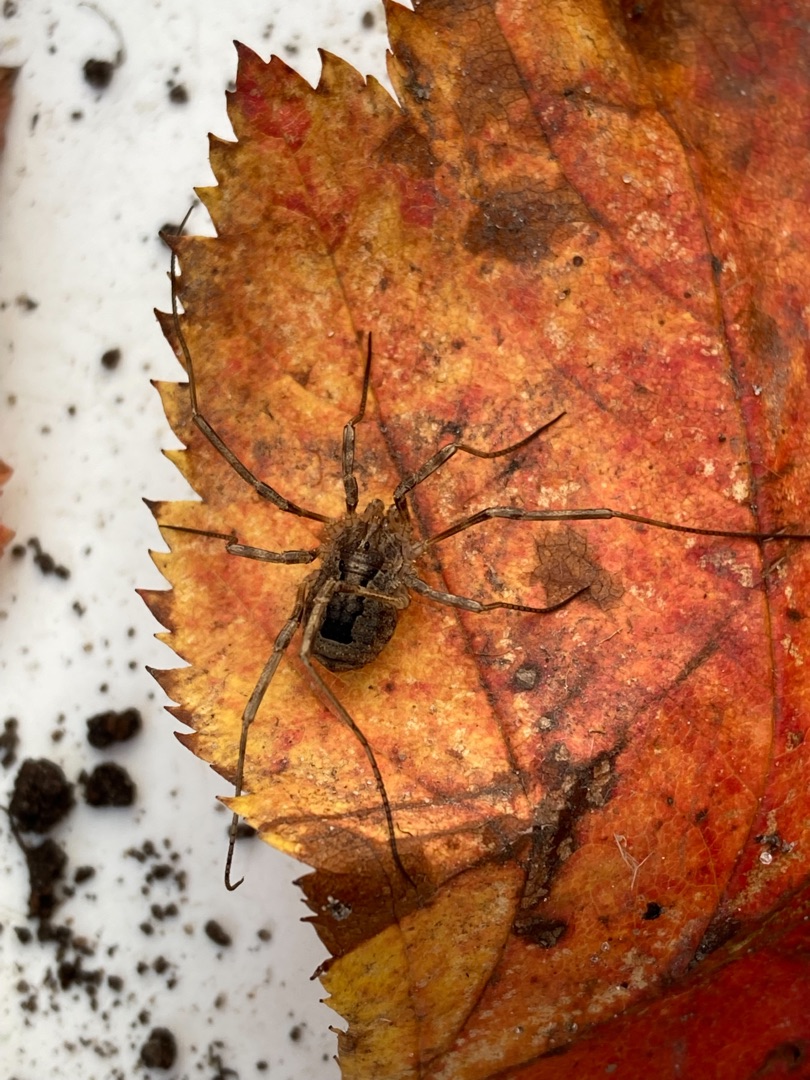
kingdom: Animalia
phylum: Arthropoda
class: Arachnida
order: Opiliones
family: Phalangiidae
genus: Odiellus
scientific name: Odiellus spinosus
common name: Kæmpemejer
